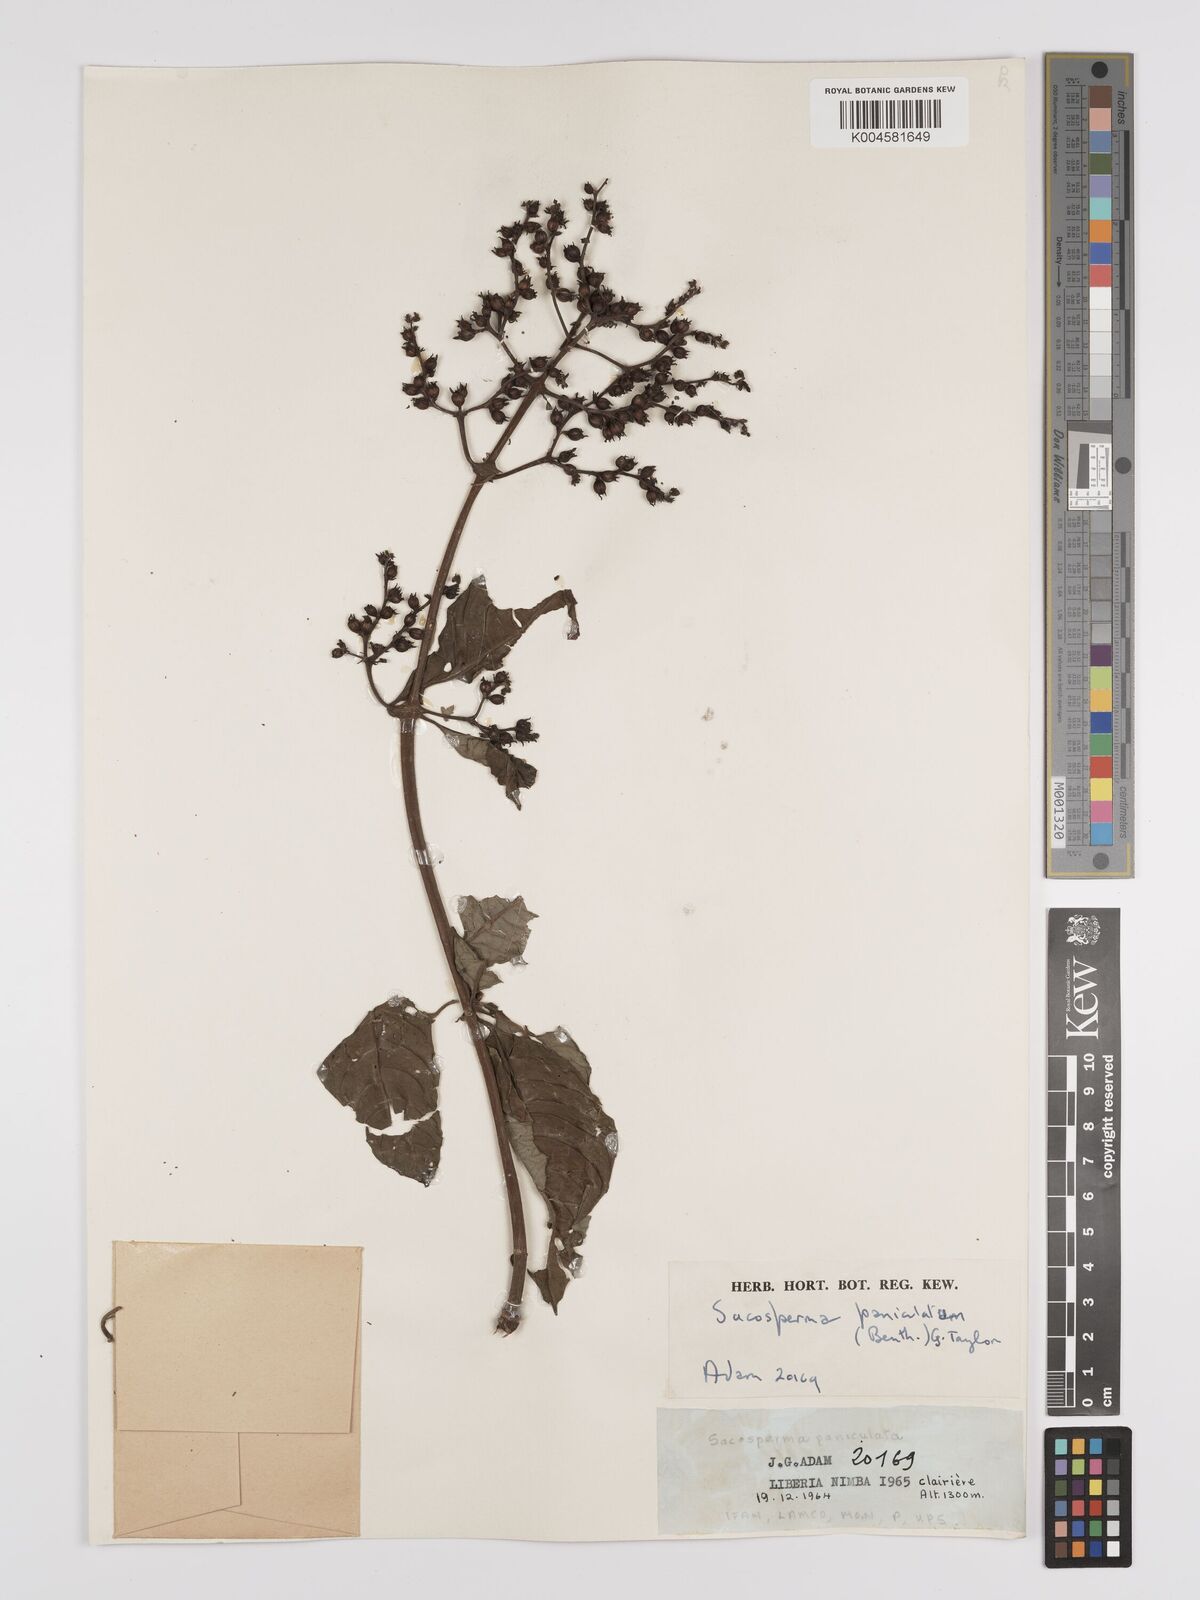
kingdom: Plantae
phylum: Tracheophyta
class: Magnoliopsida
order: Gentianales
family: Rubiaceae
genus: Sacosperma
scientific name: Sacosperma paniculatum
